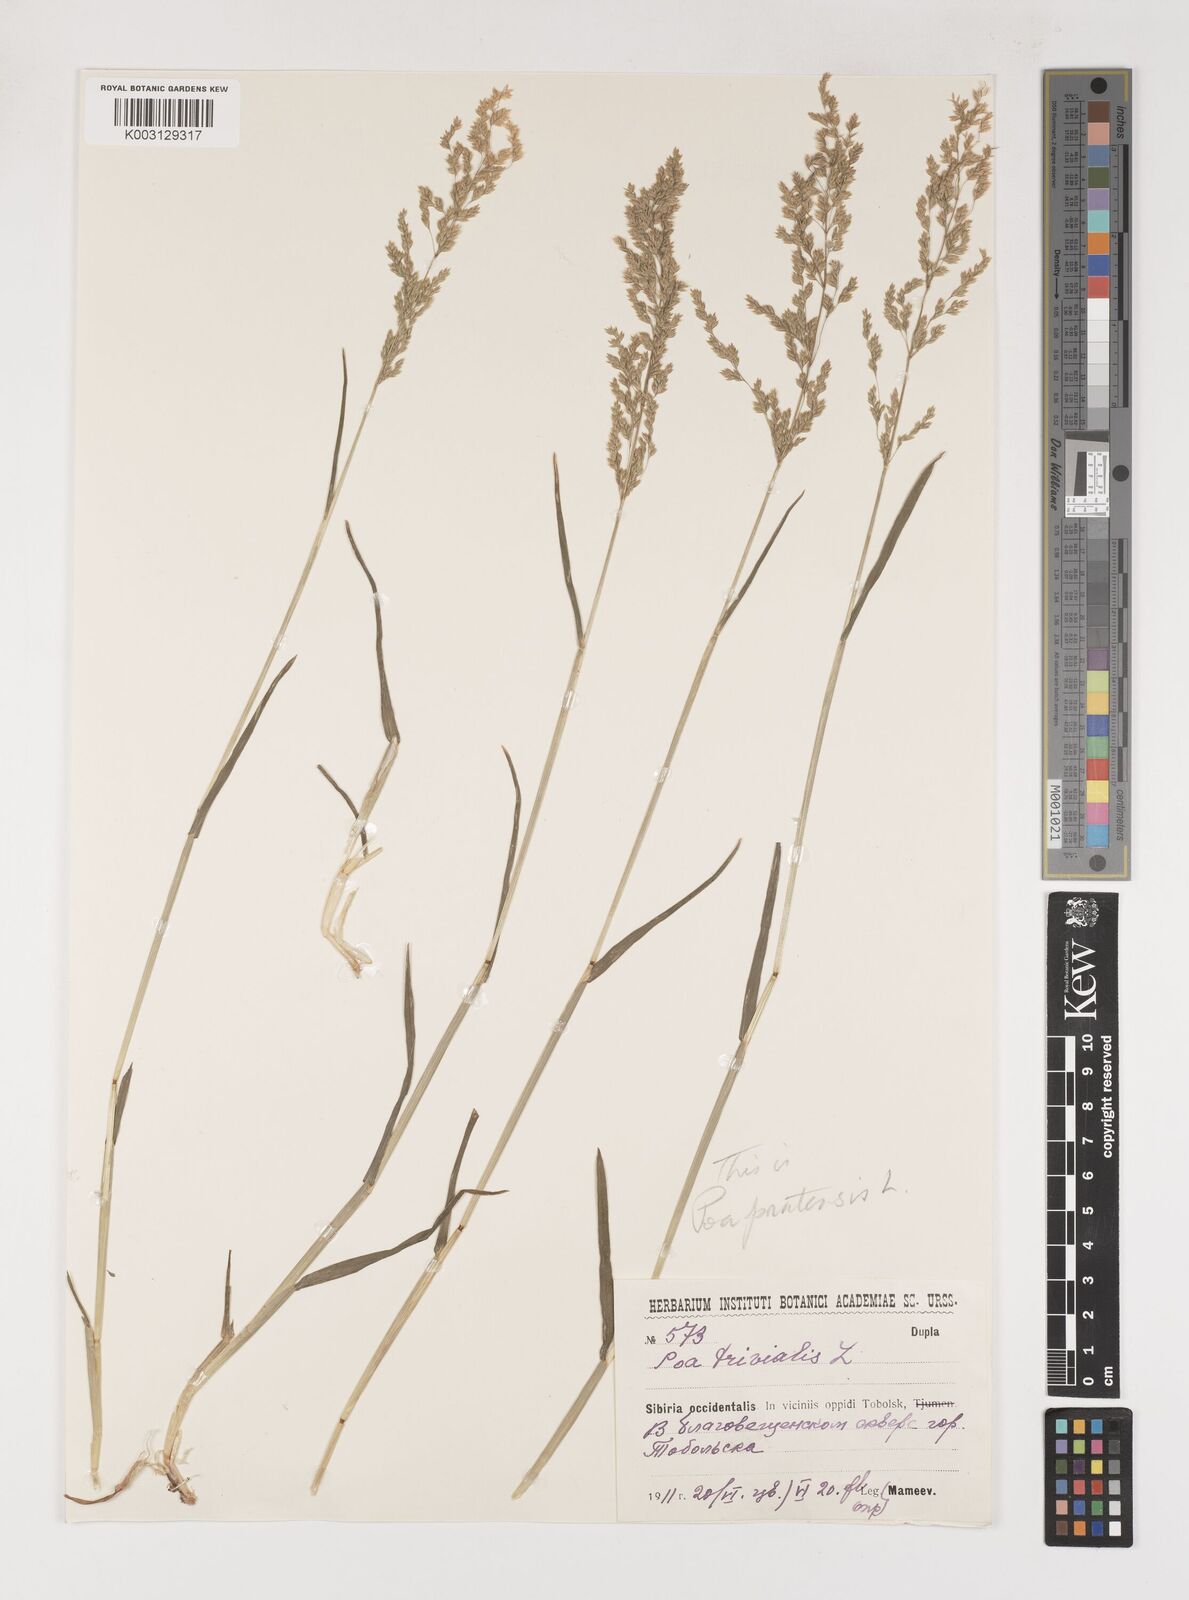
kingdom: Plantae
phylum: Tracheophyta
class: Liliopsida
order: Poales
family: Poaceae
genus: Poa
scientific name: Poa trivialis
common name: Rough bluegrass
